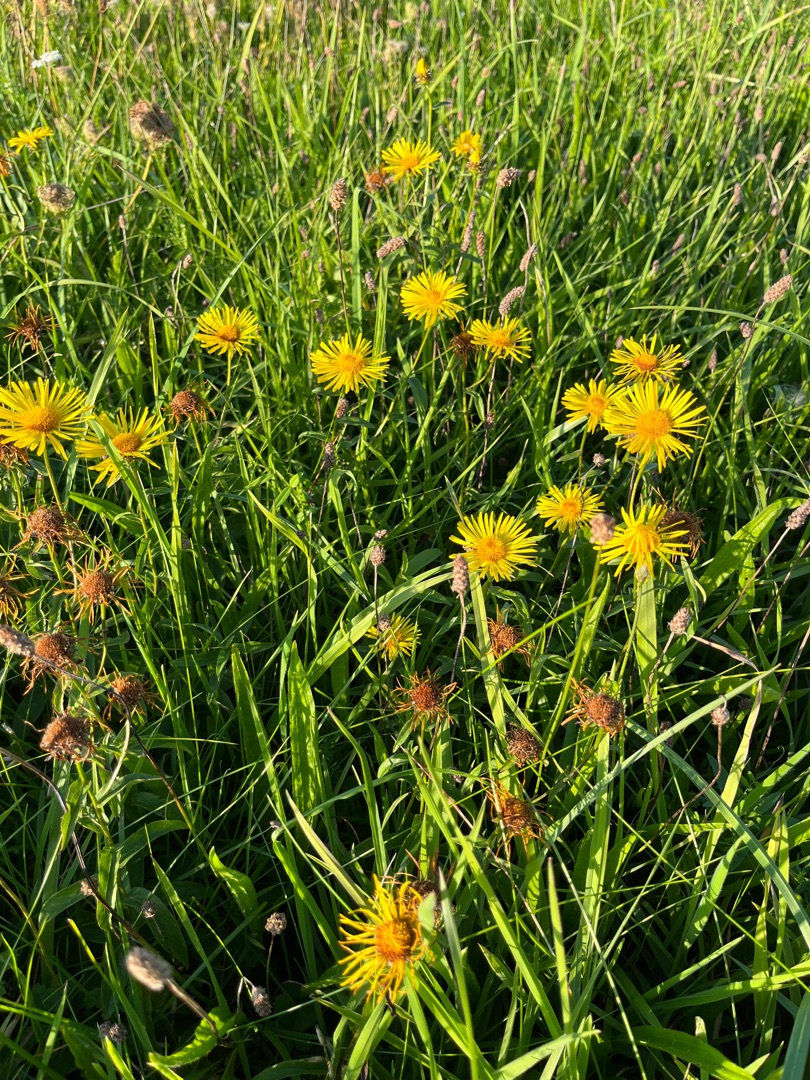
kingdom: Plantae
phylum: Tracheophyta
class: Magnoliopsida
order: Asterales
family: Asteraceae
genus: Pentanema
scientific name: Pentanema salicinum
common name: Pile-alant
